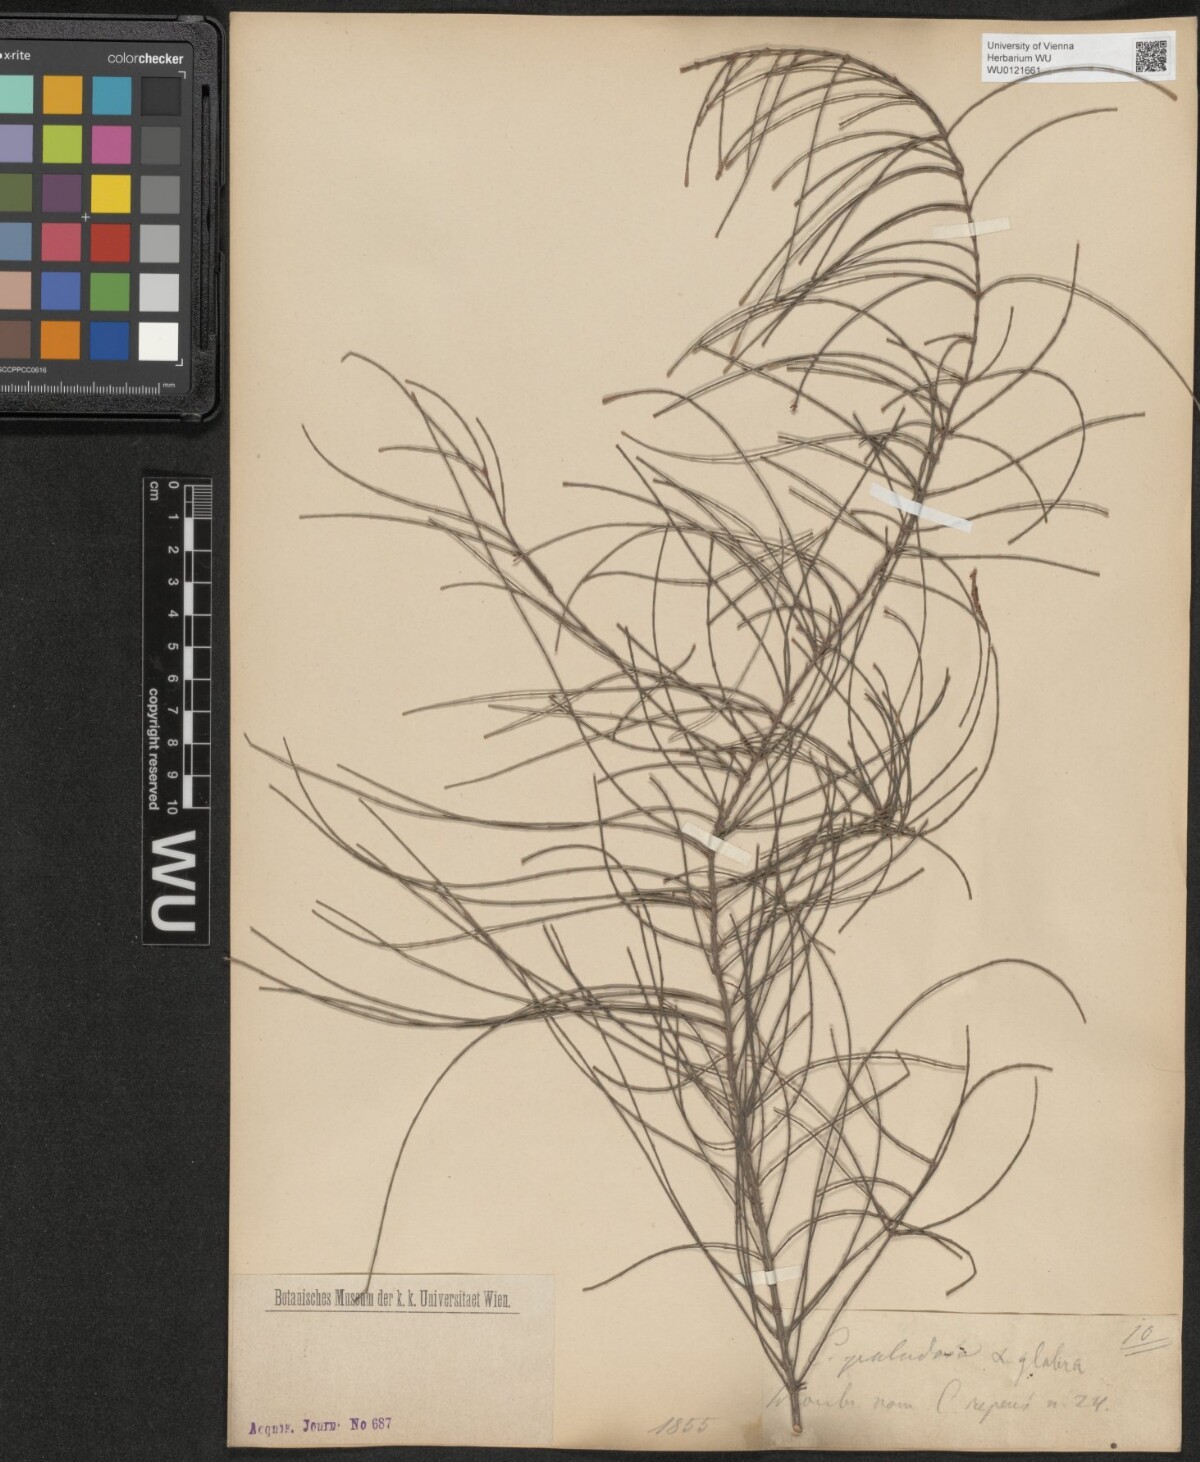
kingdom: Plantae
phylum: Tracheophyta
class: Magnoliopsida
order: Fagales
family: Casuarinaceae
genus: Allocasuarina
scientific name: Allocasuarina paludosa
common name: Scrub she-oak
